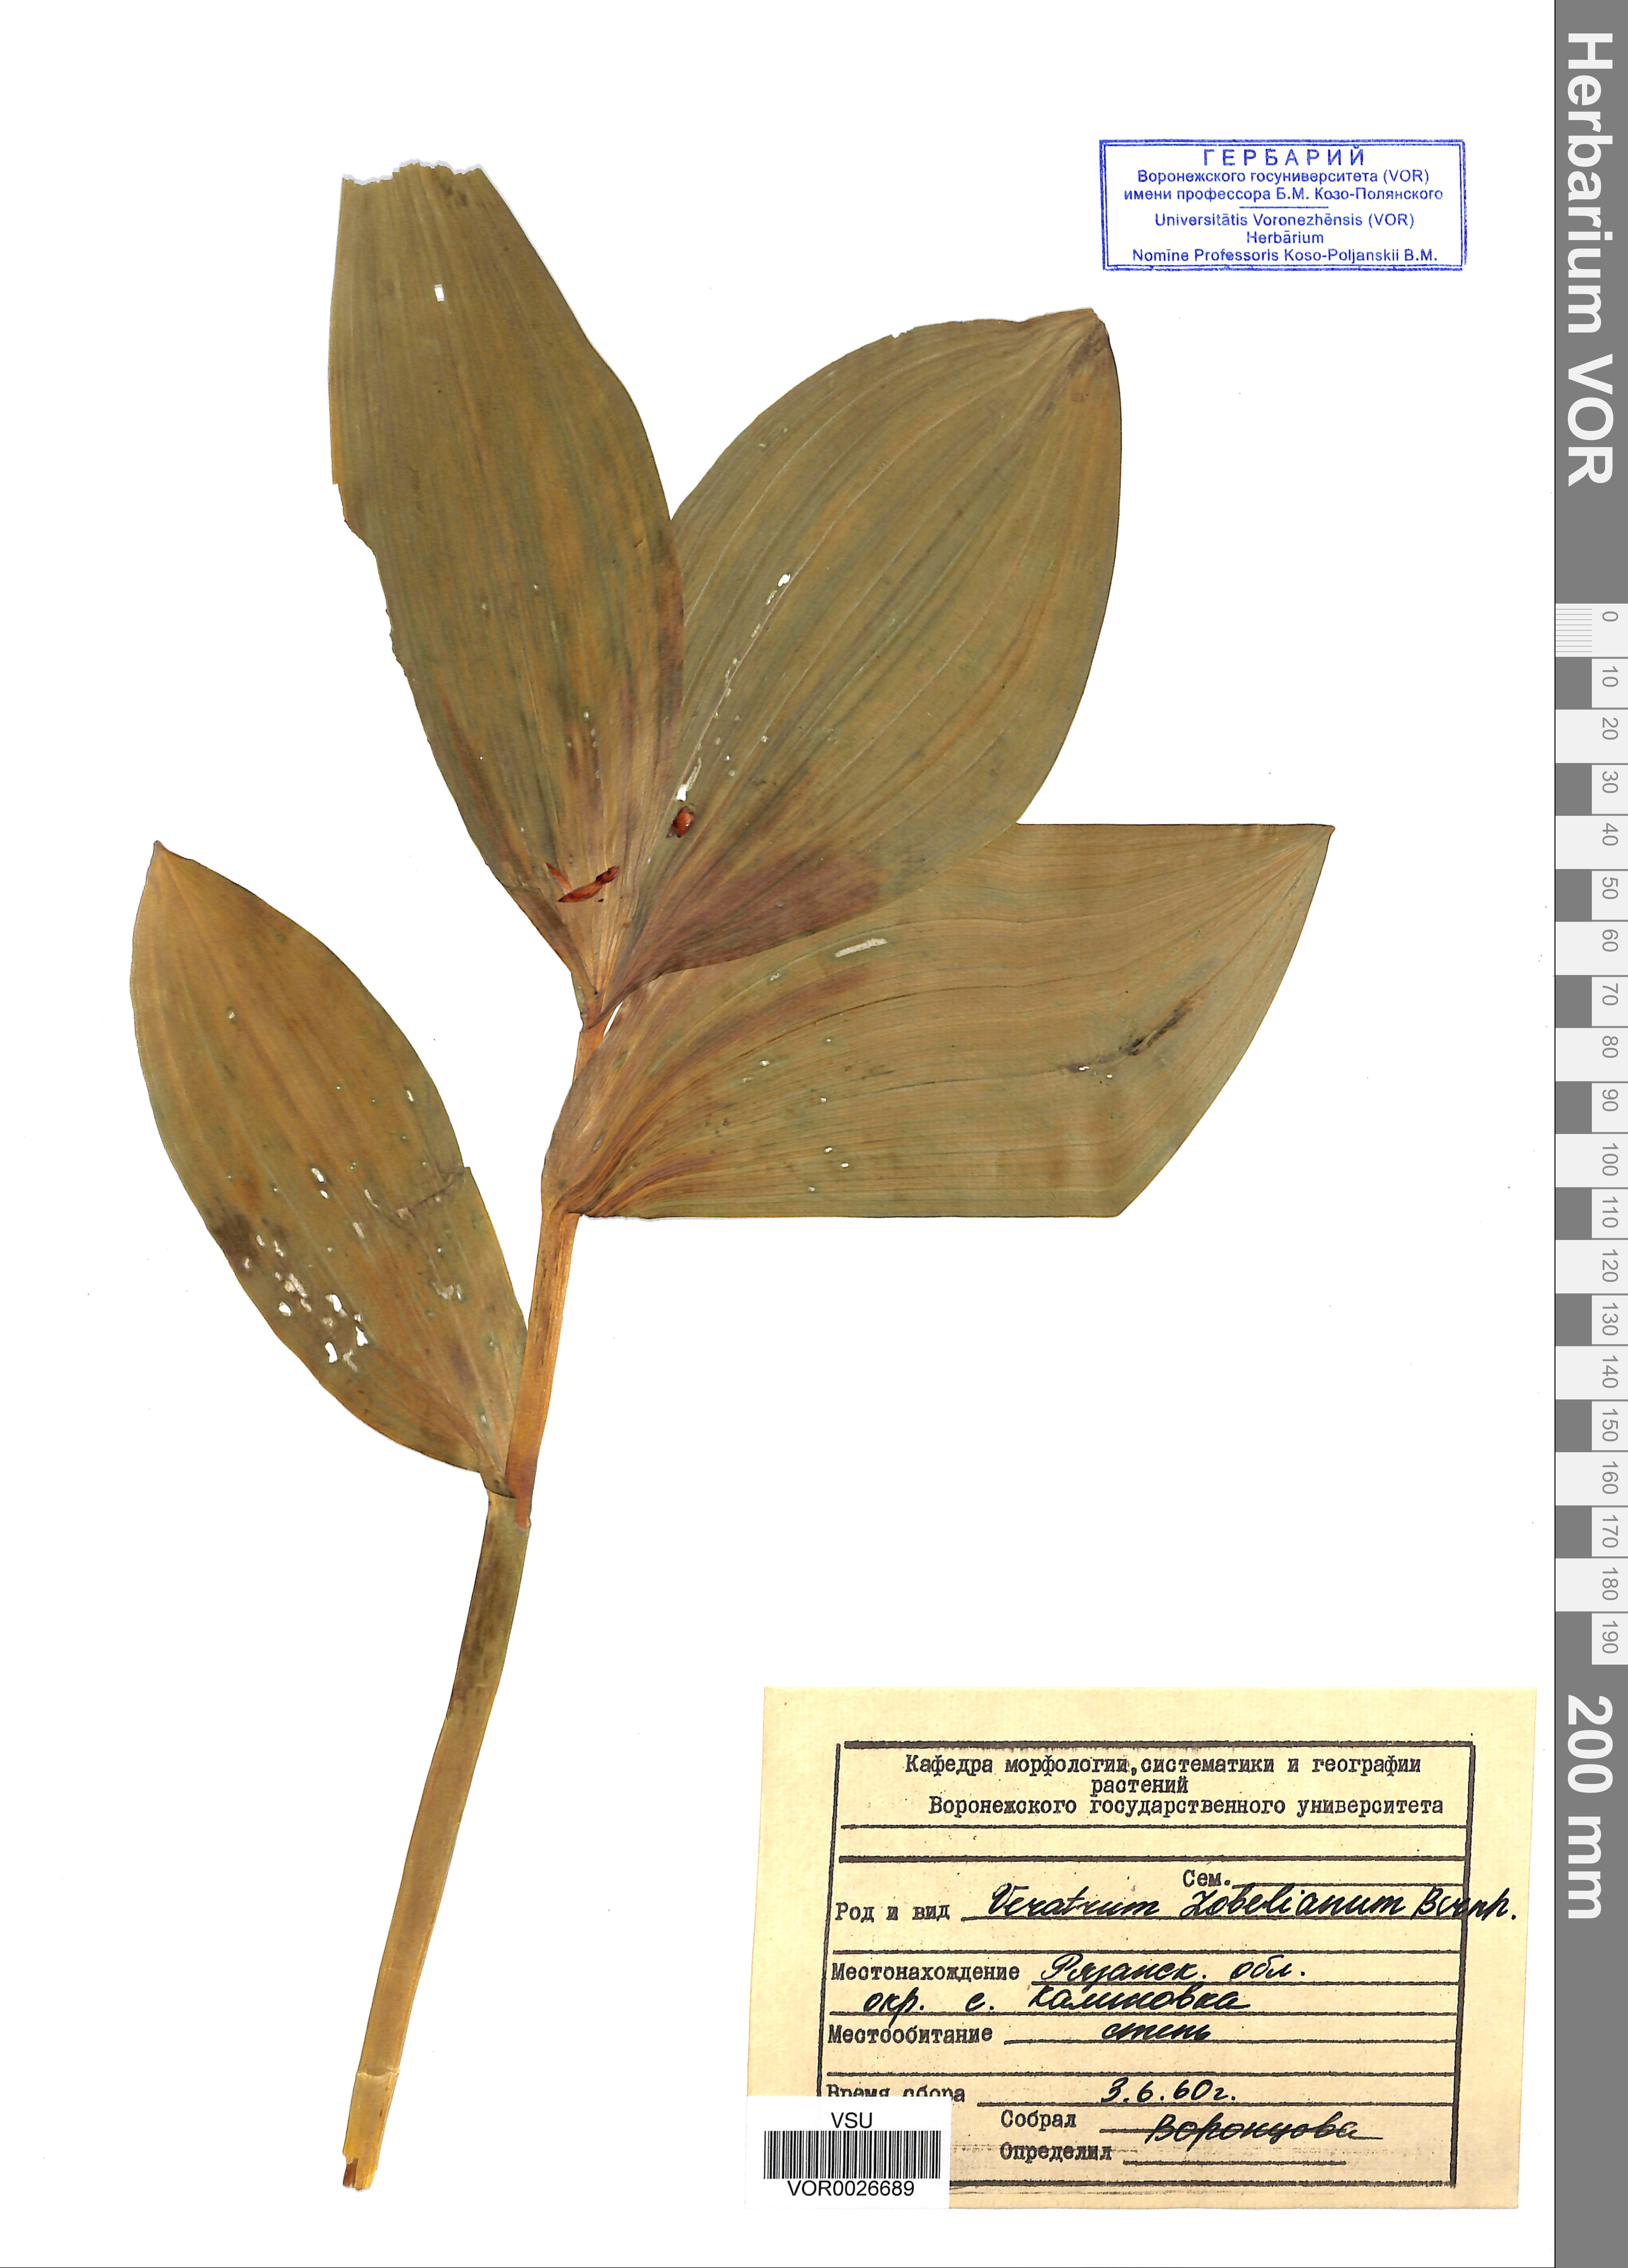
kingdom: Plantae
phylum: Tracheophyta
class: Liliopsida
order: Liliales
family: Melanthiaceae
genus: Veratrum
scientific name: Veratrum lobelianum
